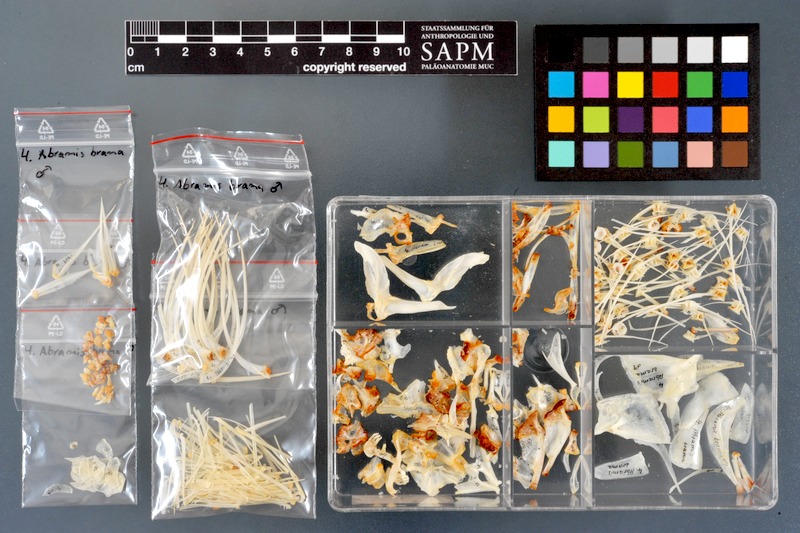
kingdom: Animalia
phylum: Chordata
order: Cypriniformes
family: Cyprinidae
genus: Abramis
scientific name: Abramis brama
